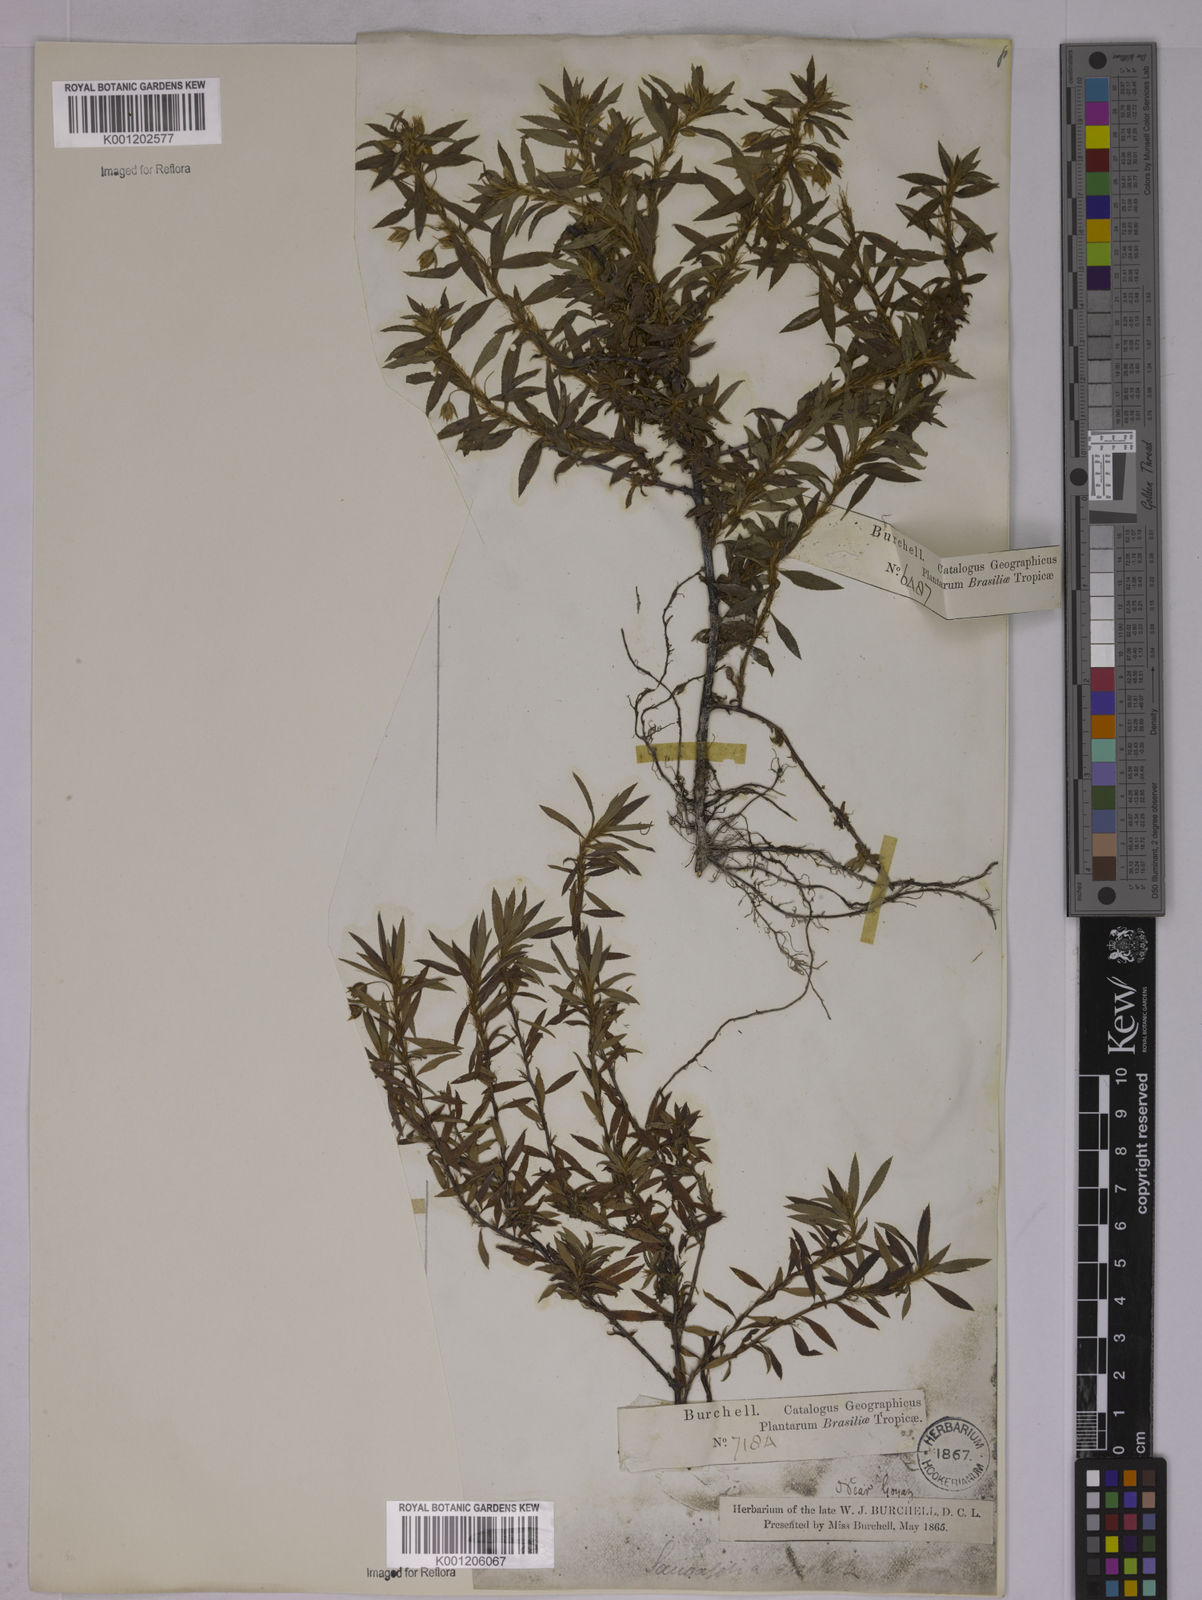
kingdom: Plantae
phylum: Tracheophyta
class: Magnoliopsida
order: Malpighiales
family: Ochnaceae
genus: Sauvagesia
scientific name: Sauvagesia erecta
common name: Creole tea
